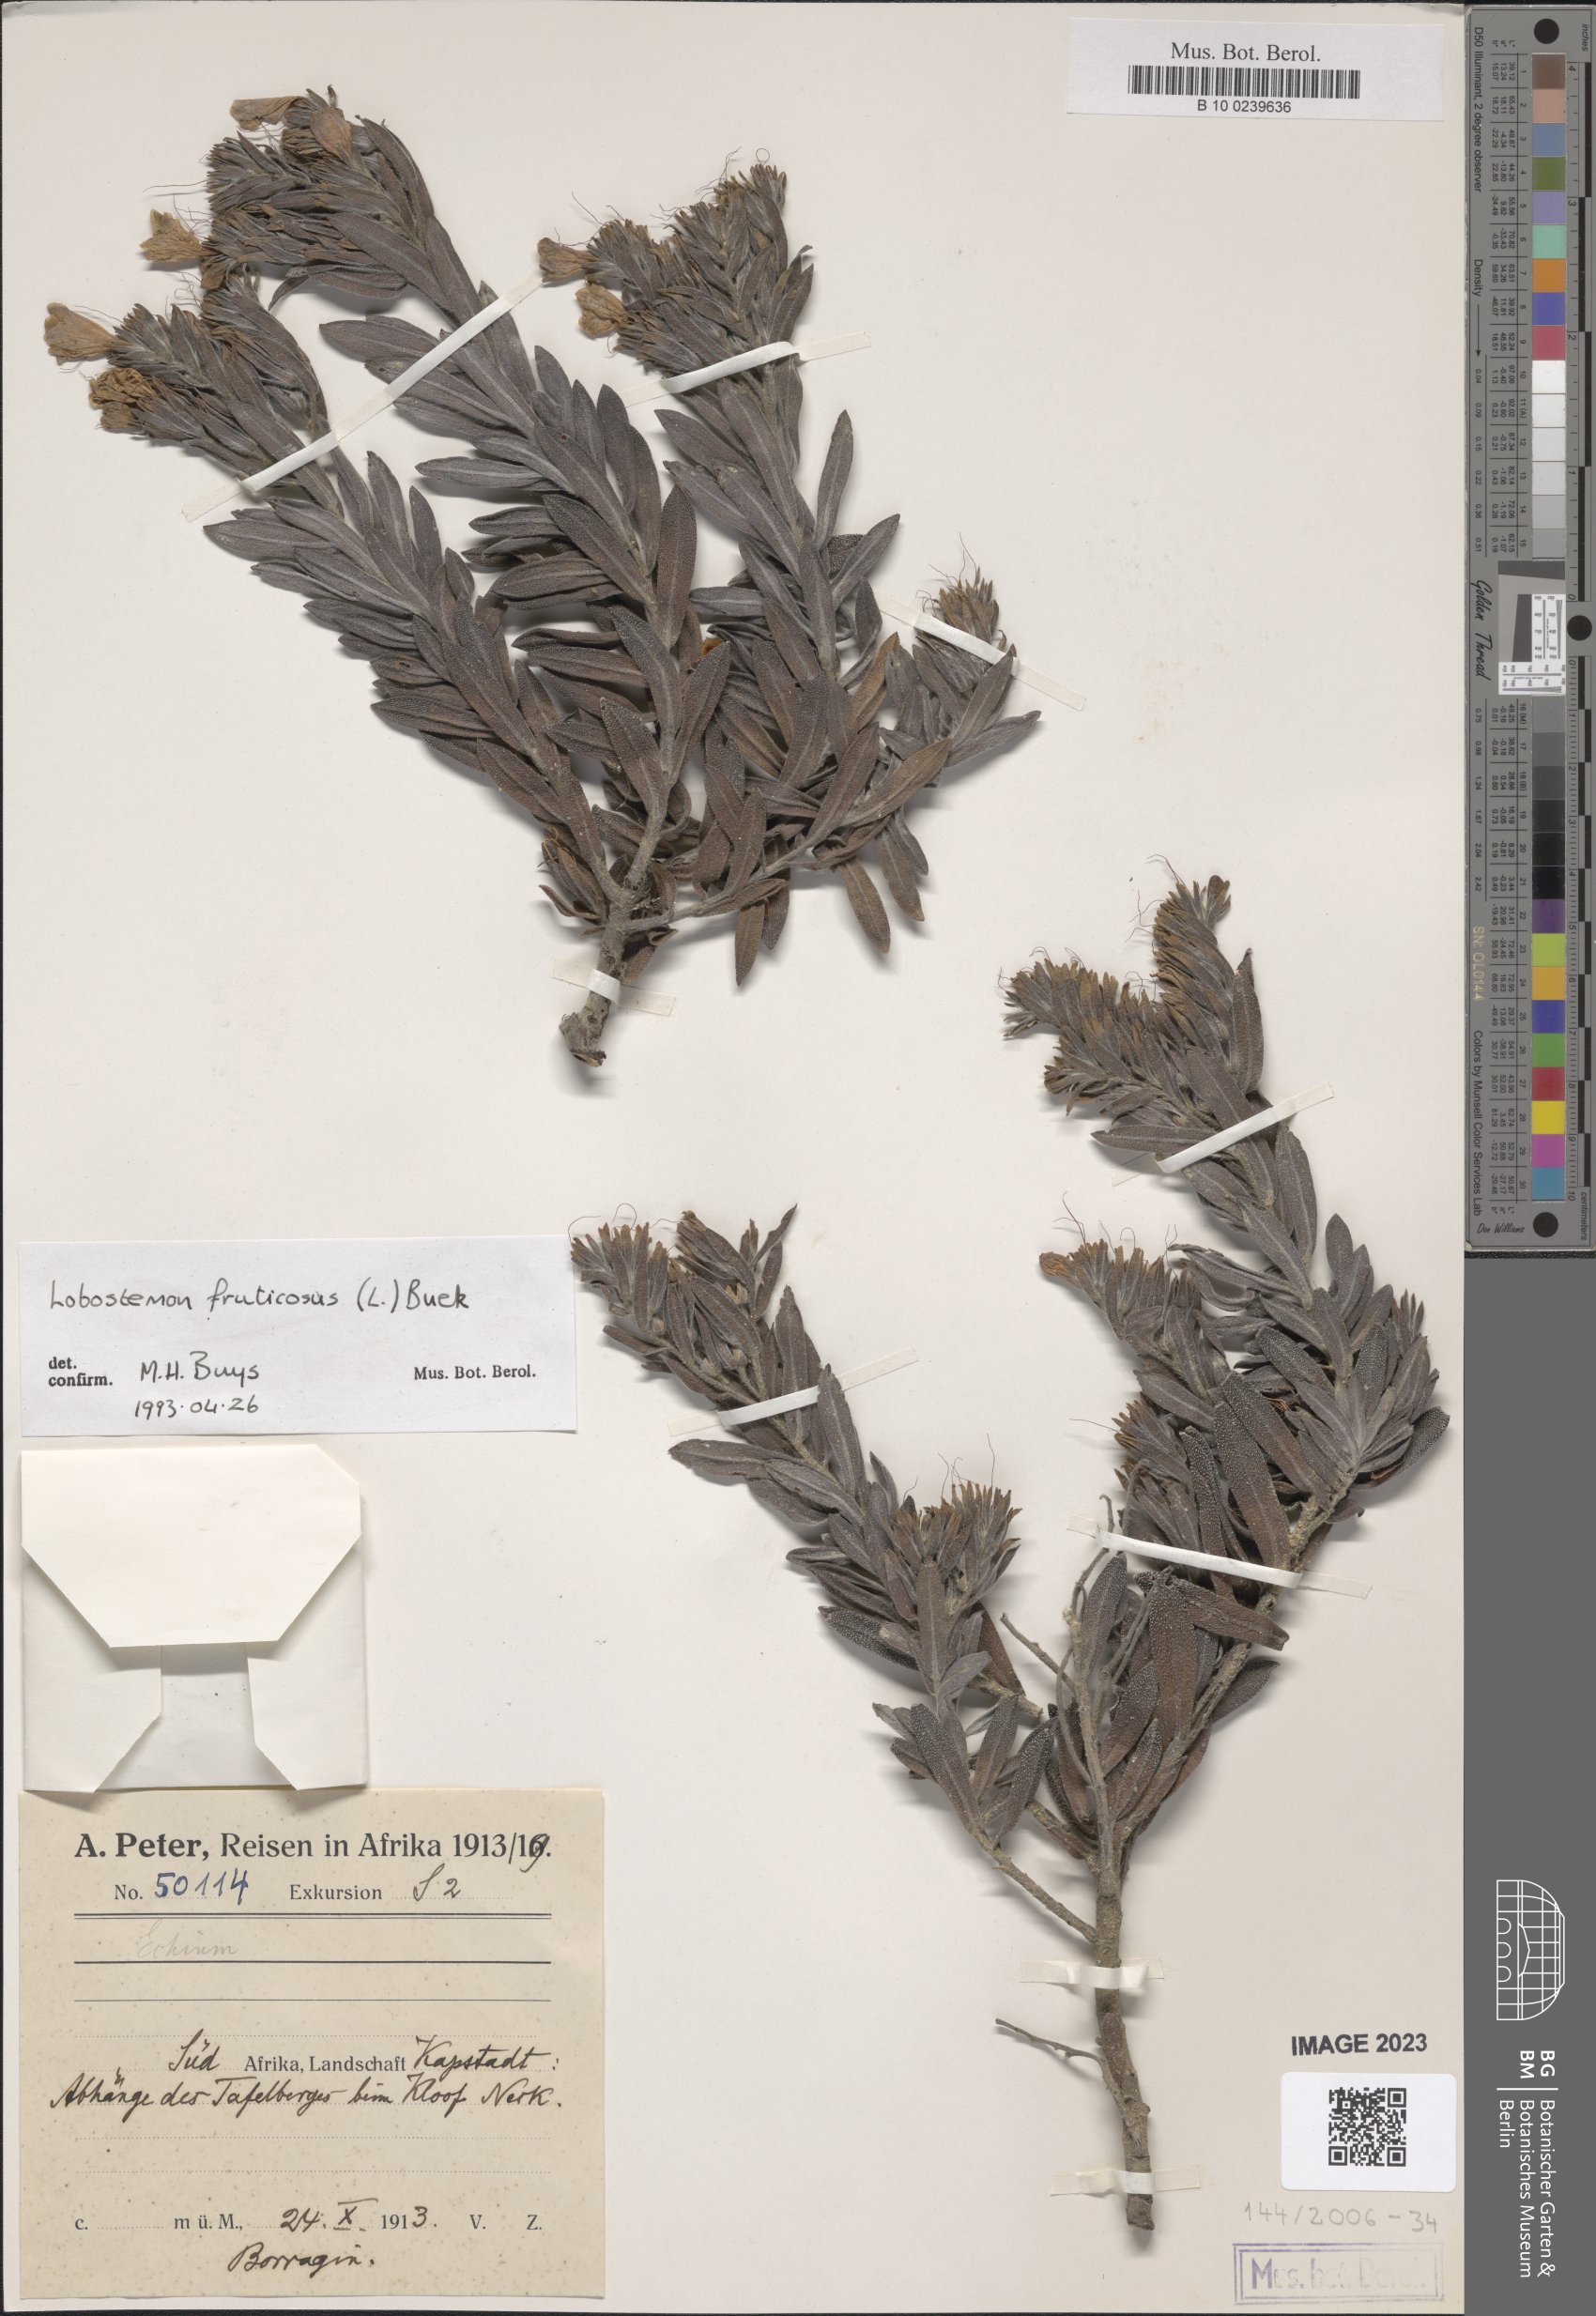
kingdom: Plantae
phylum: Tracheophyta
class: Magnoliopsida
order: Boraginales
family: Boraginaceae
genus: Lobostemon
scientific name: Lobostemon fruticosus
